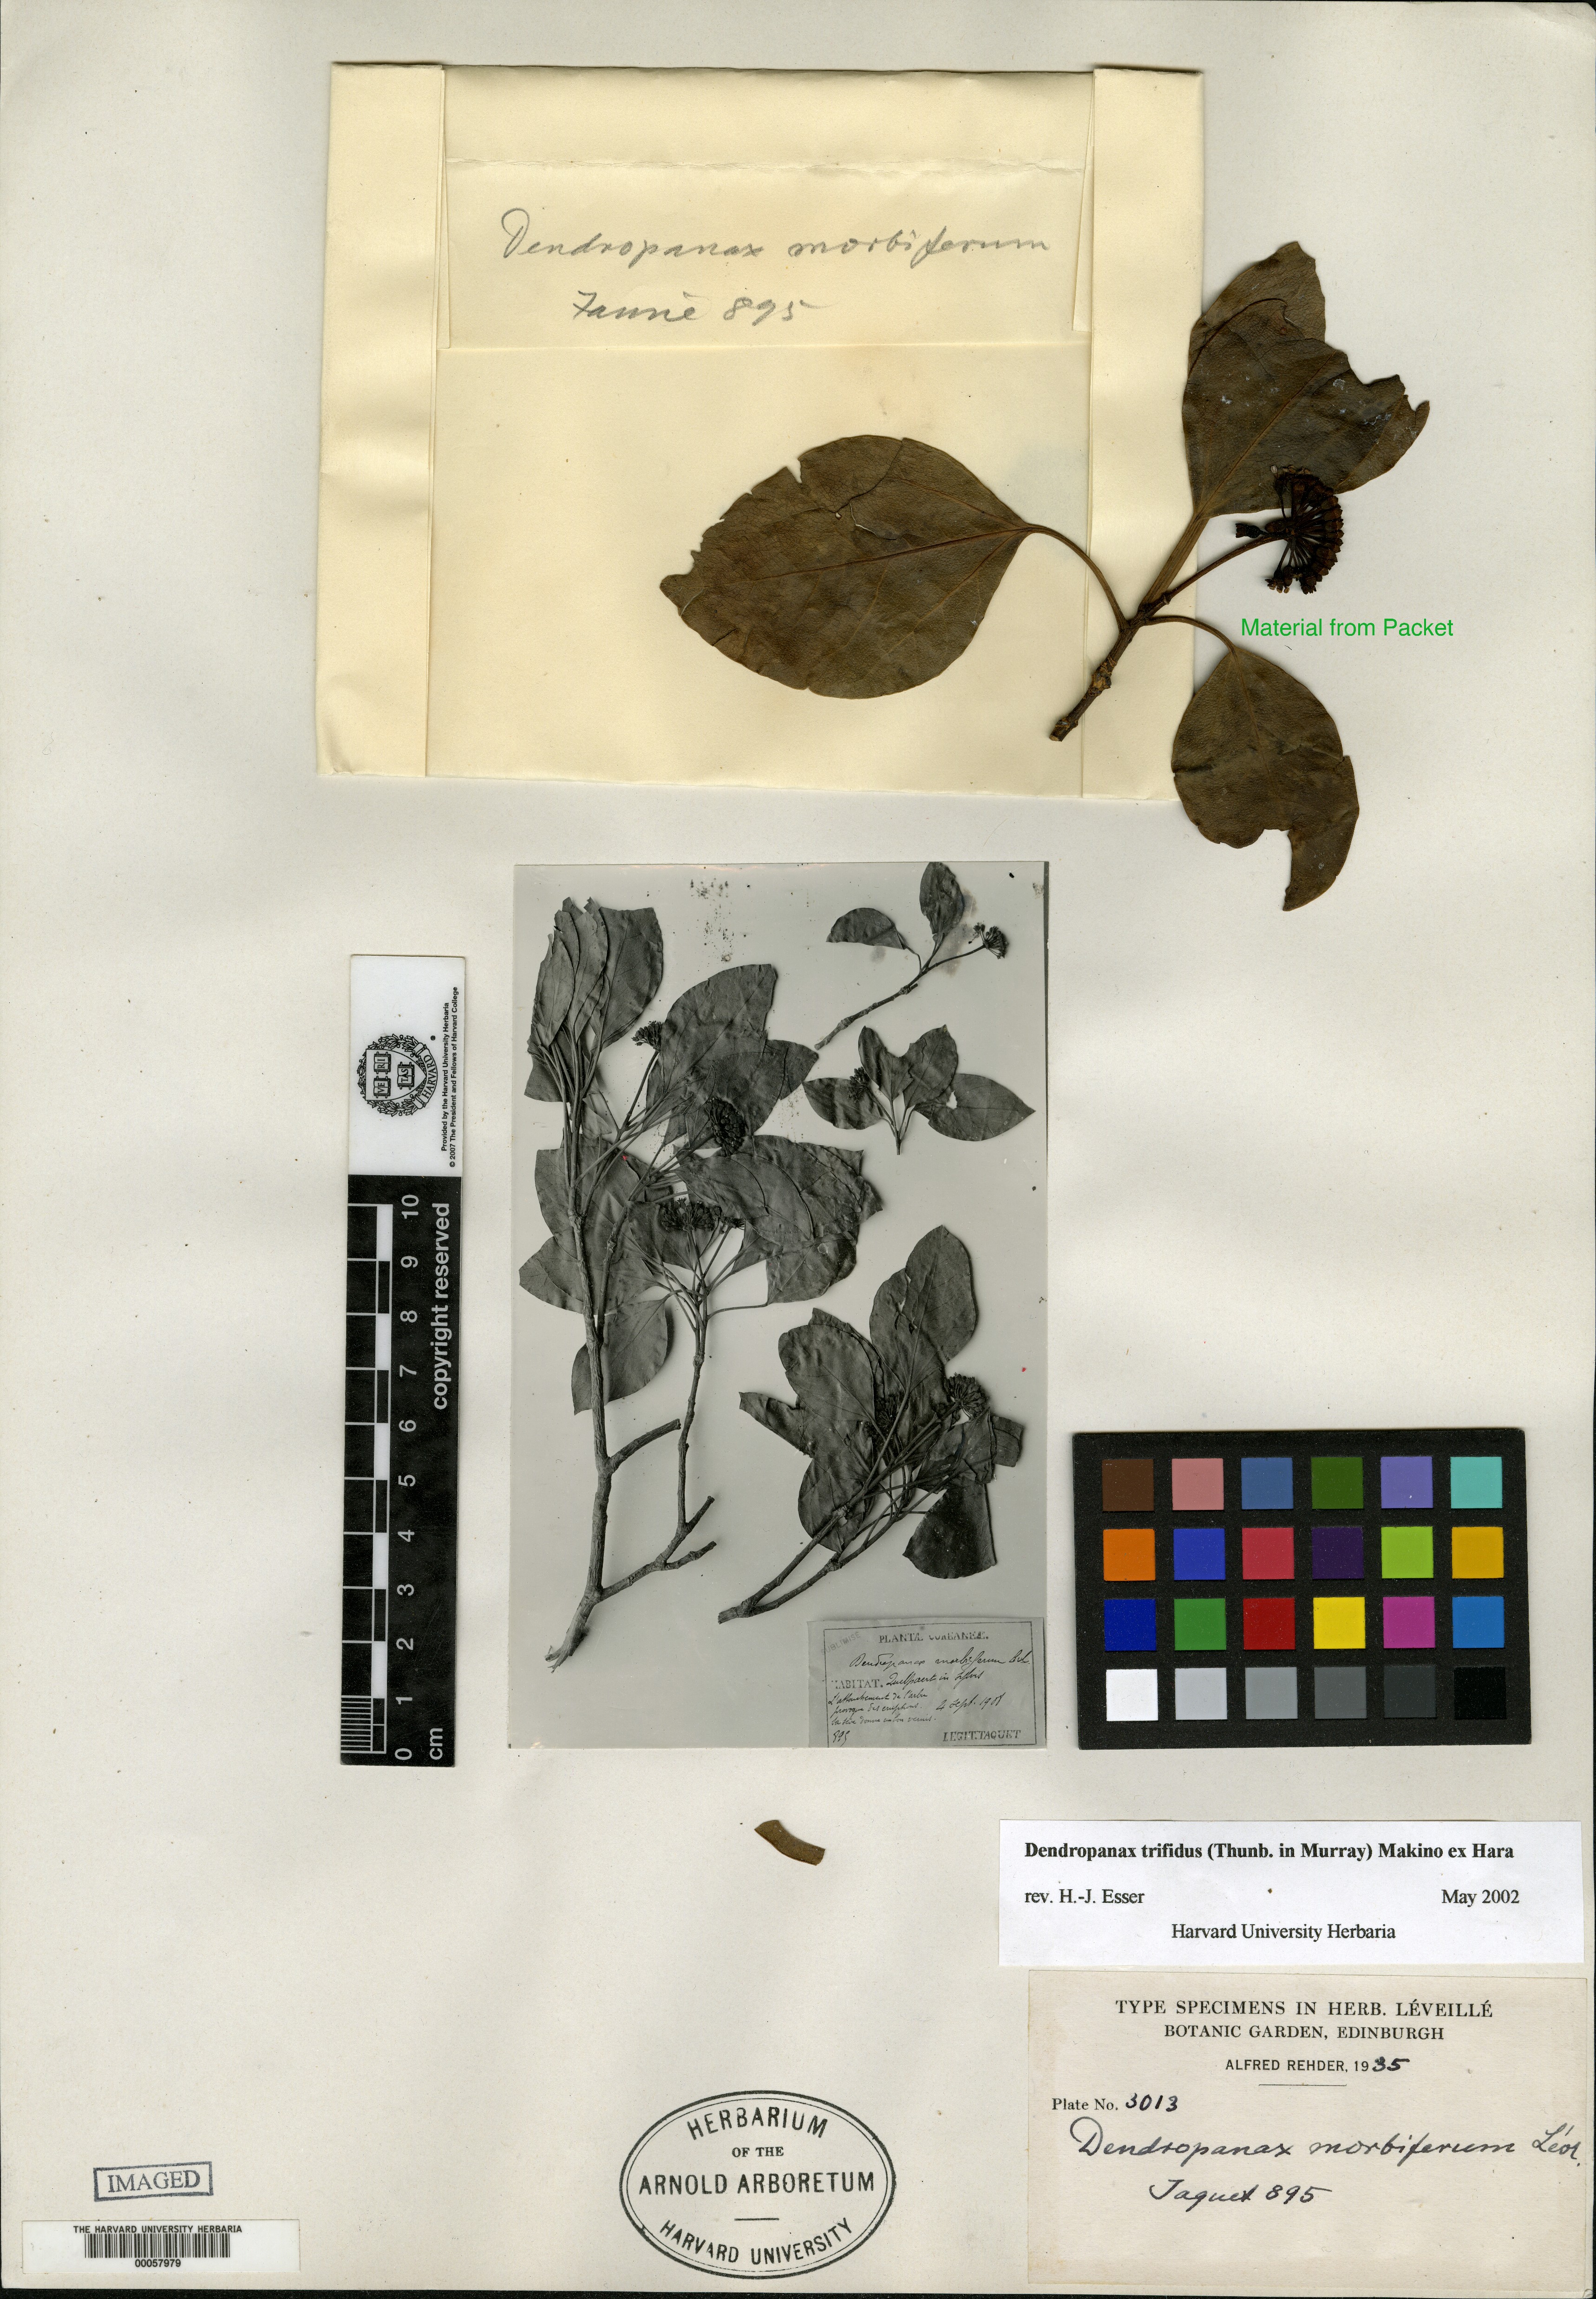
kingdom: Plantae
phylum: Tracheophyta
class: Magnoliopsida
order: Apiales
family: Araliaceae
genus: Dendropanax
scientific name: Dendropanax trifidus
